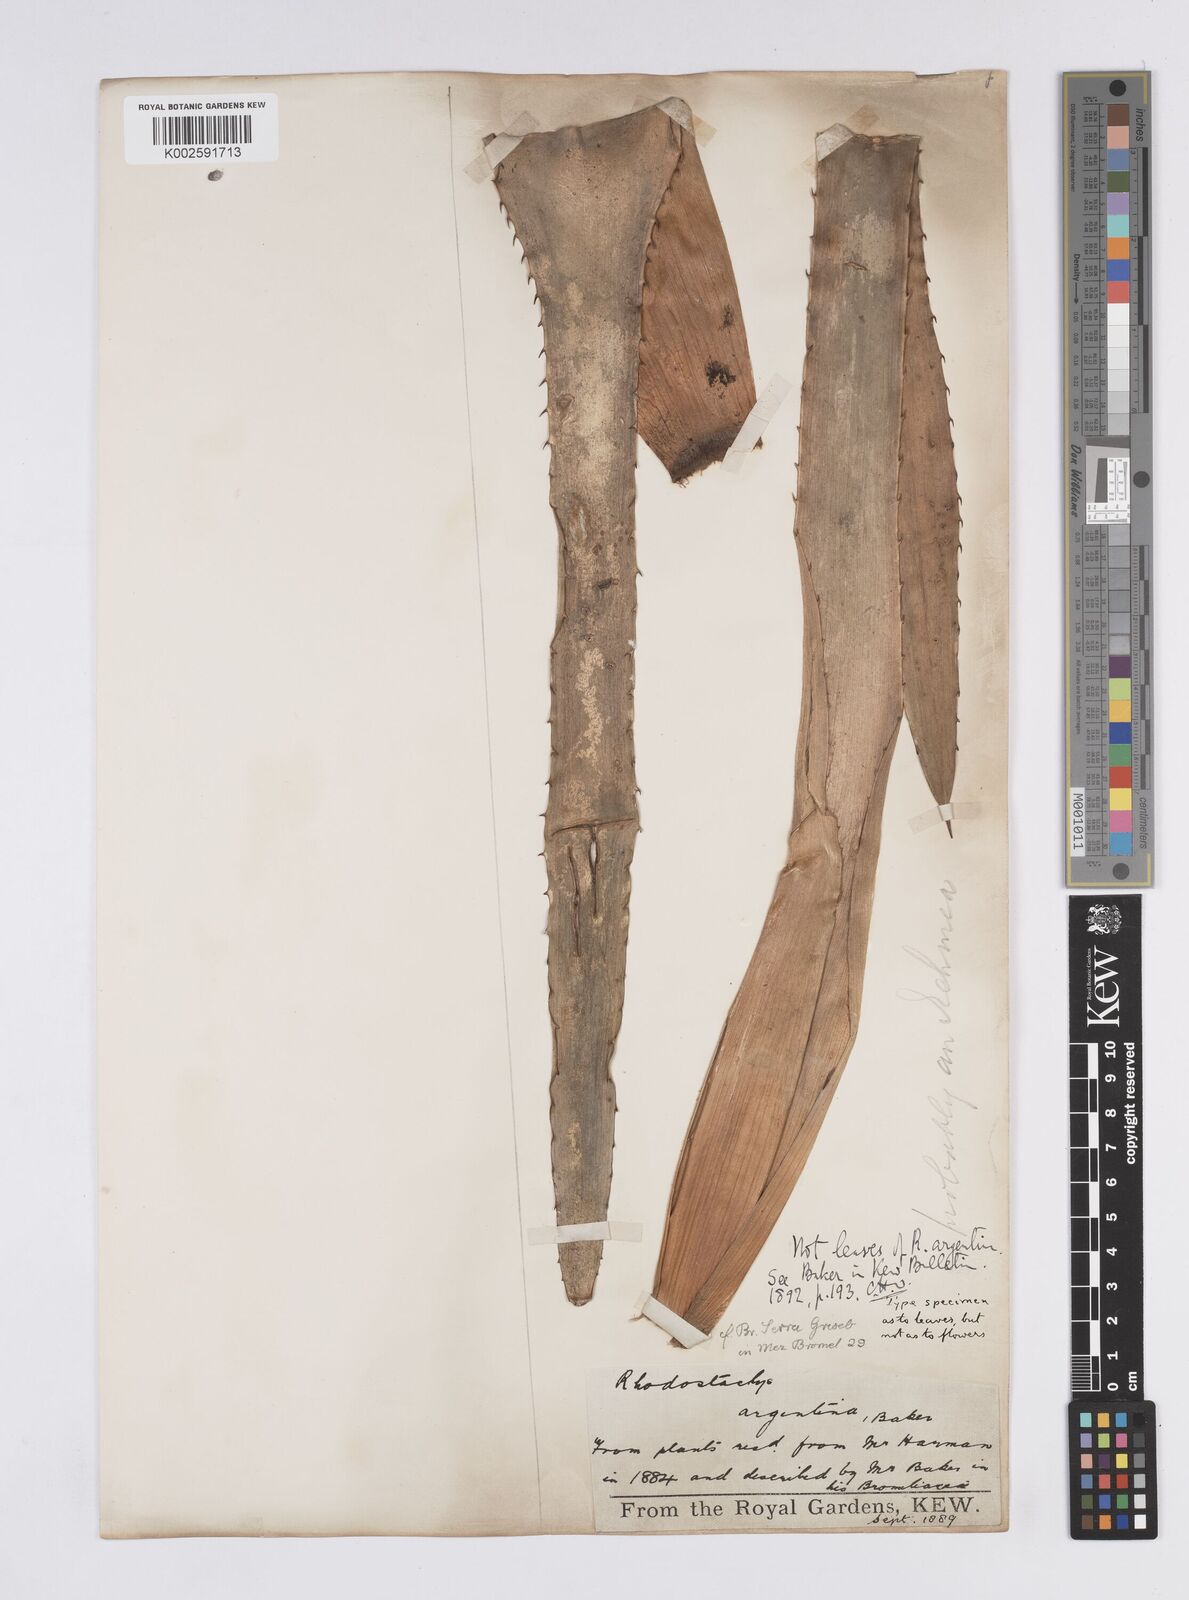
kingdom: Plantae
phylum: Tracheophyta
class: Liliopsida
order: Poales
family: Bromeliaceae
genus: Aechmea
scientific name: Aechmea
